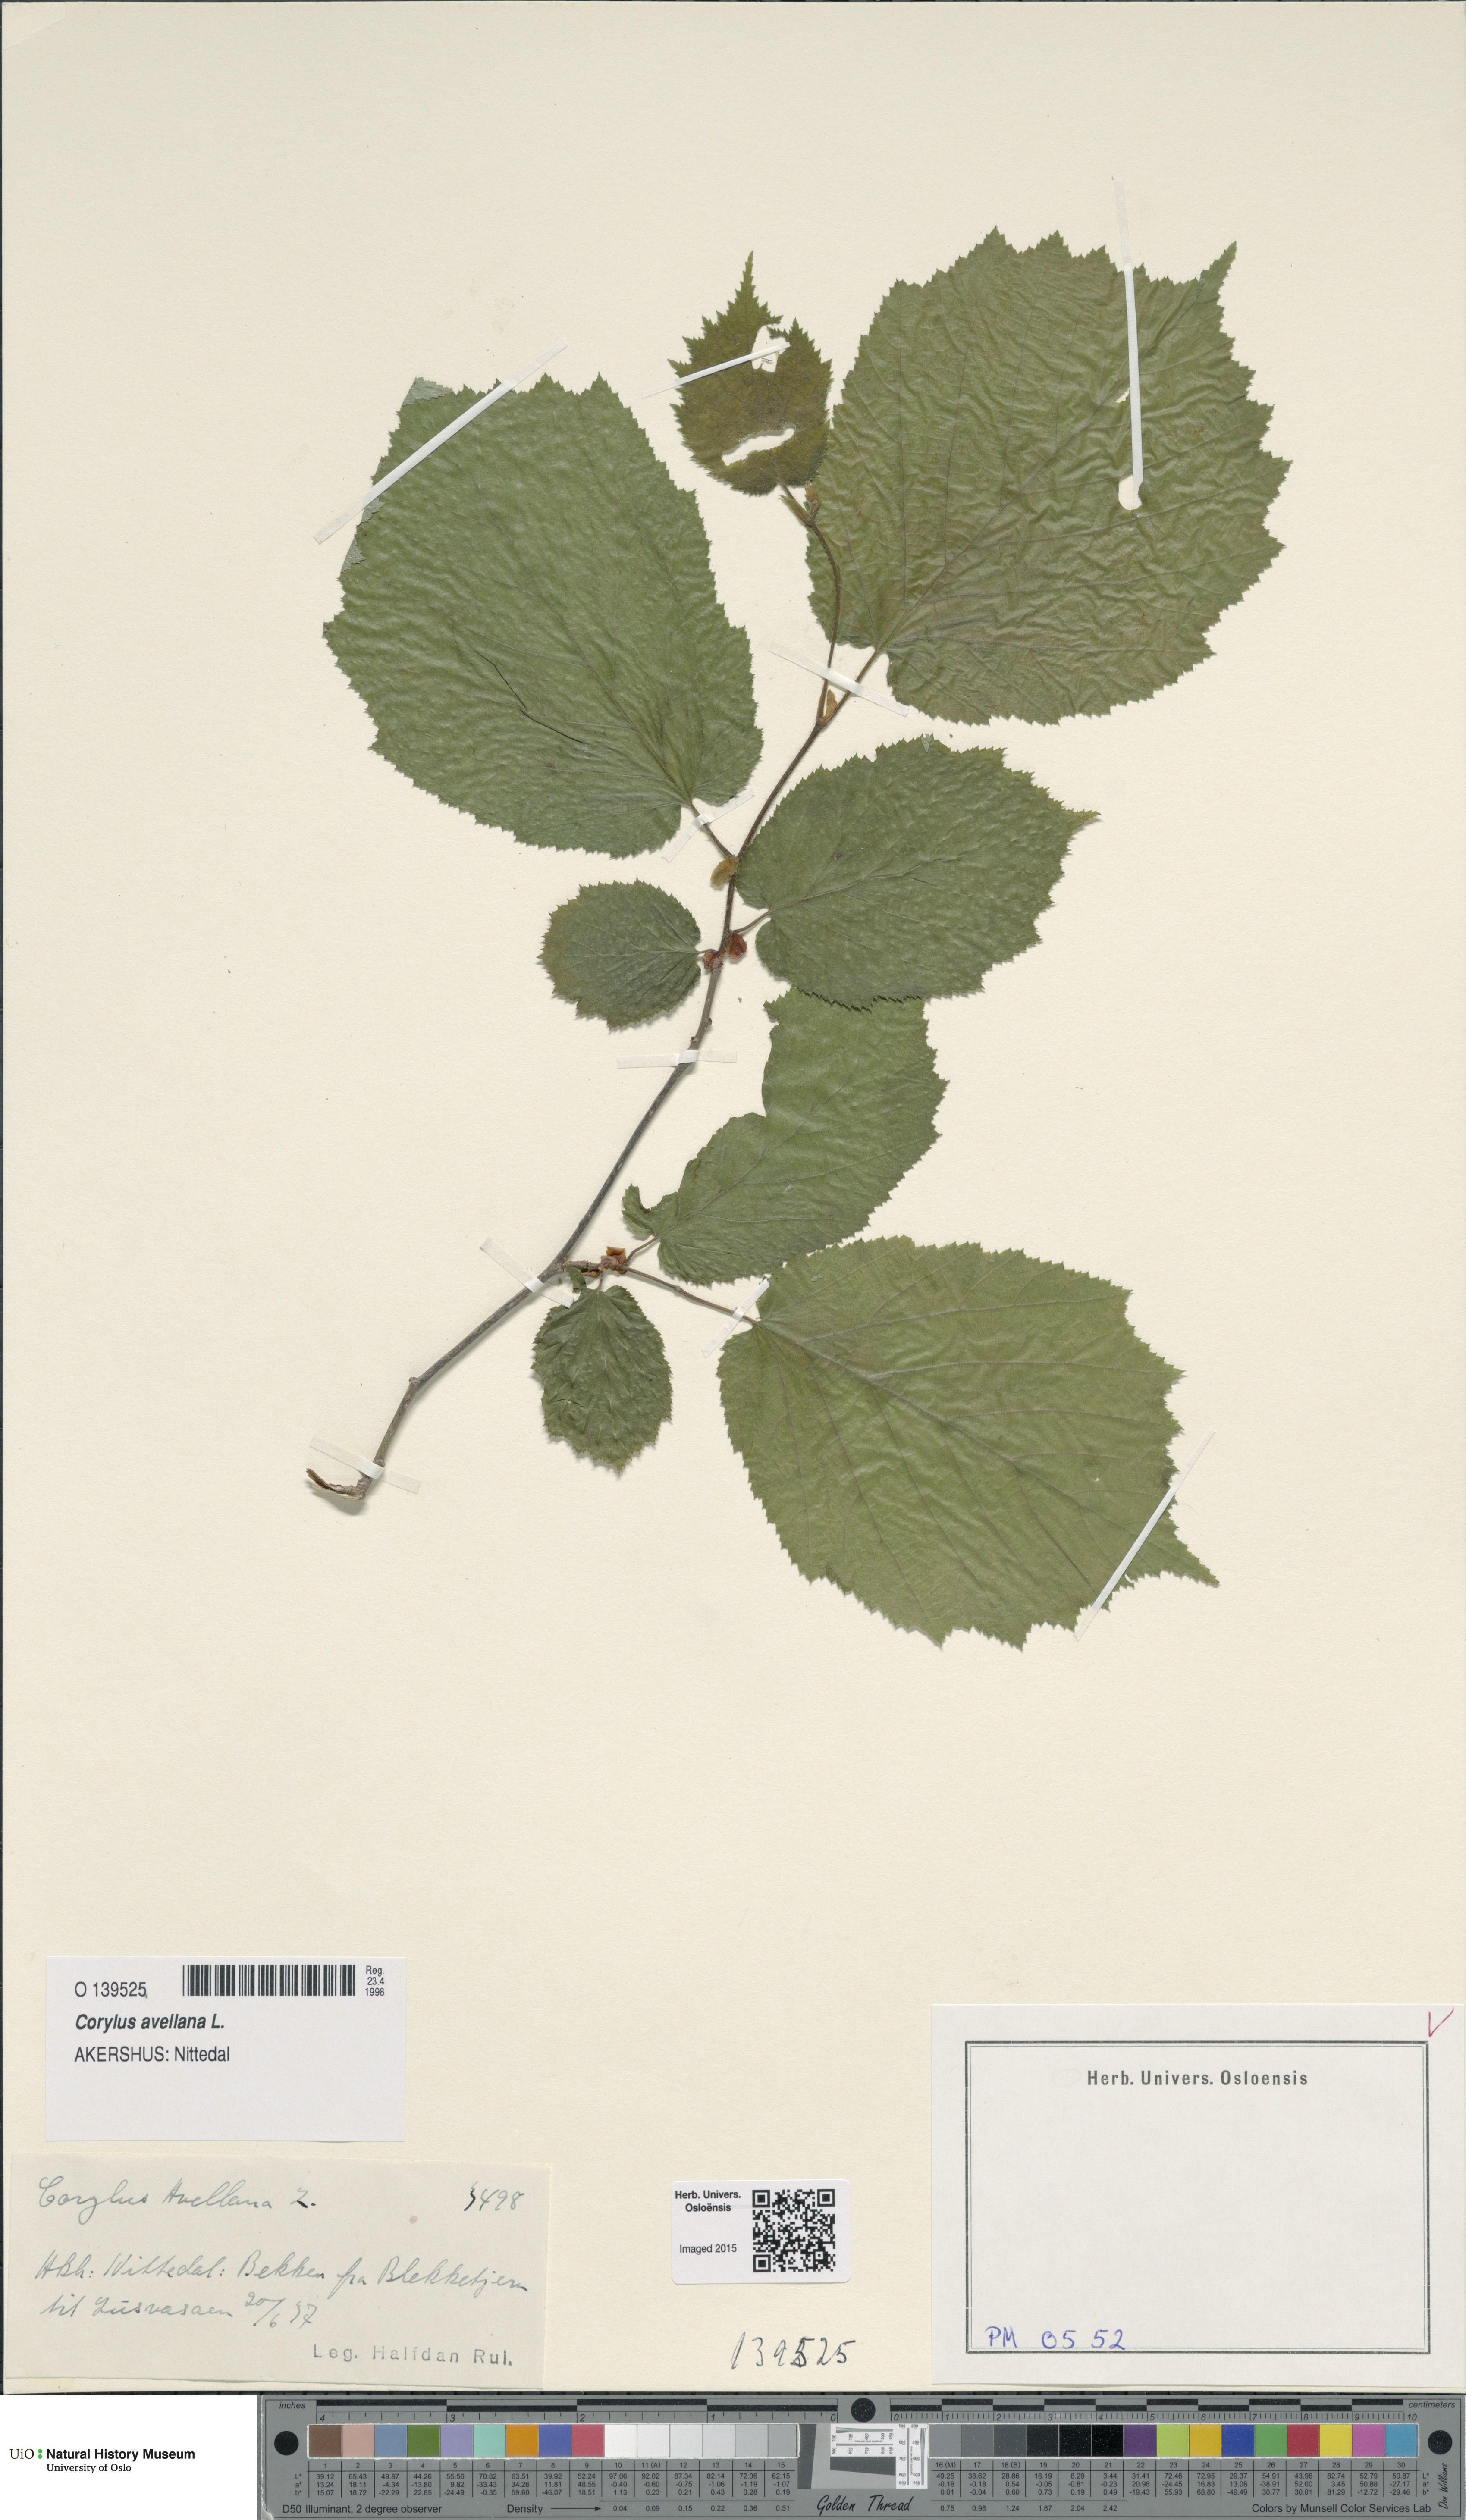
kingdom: Plantae
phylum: Tracheophyta
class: Magnoliopsida
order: Fagales
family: Betulaceae
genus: Corylus
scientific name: Corylus avellana
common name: European hazel
